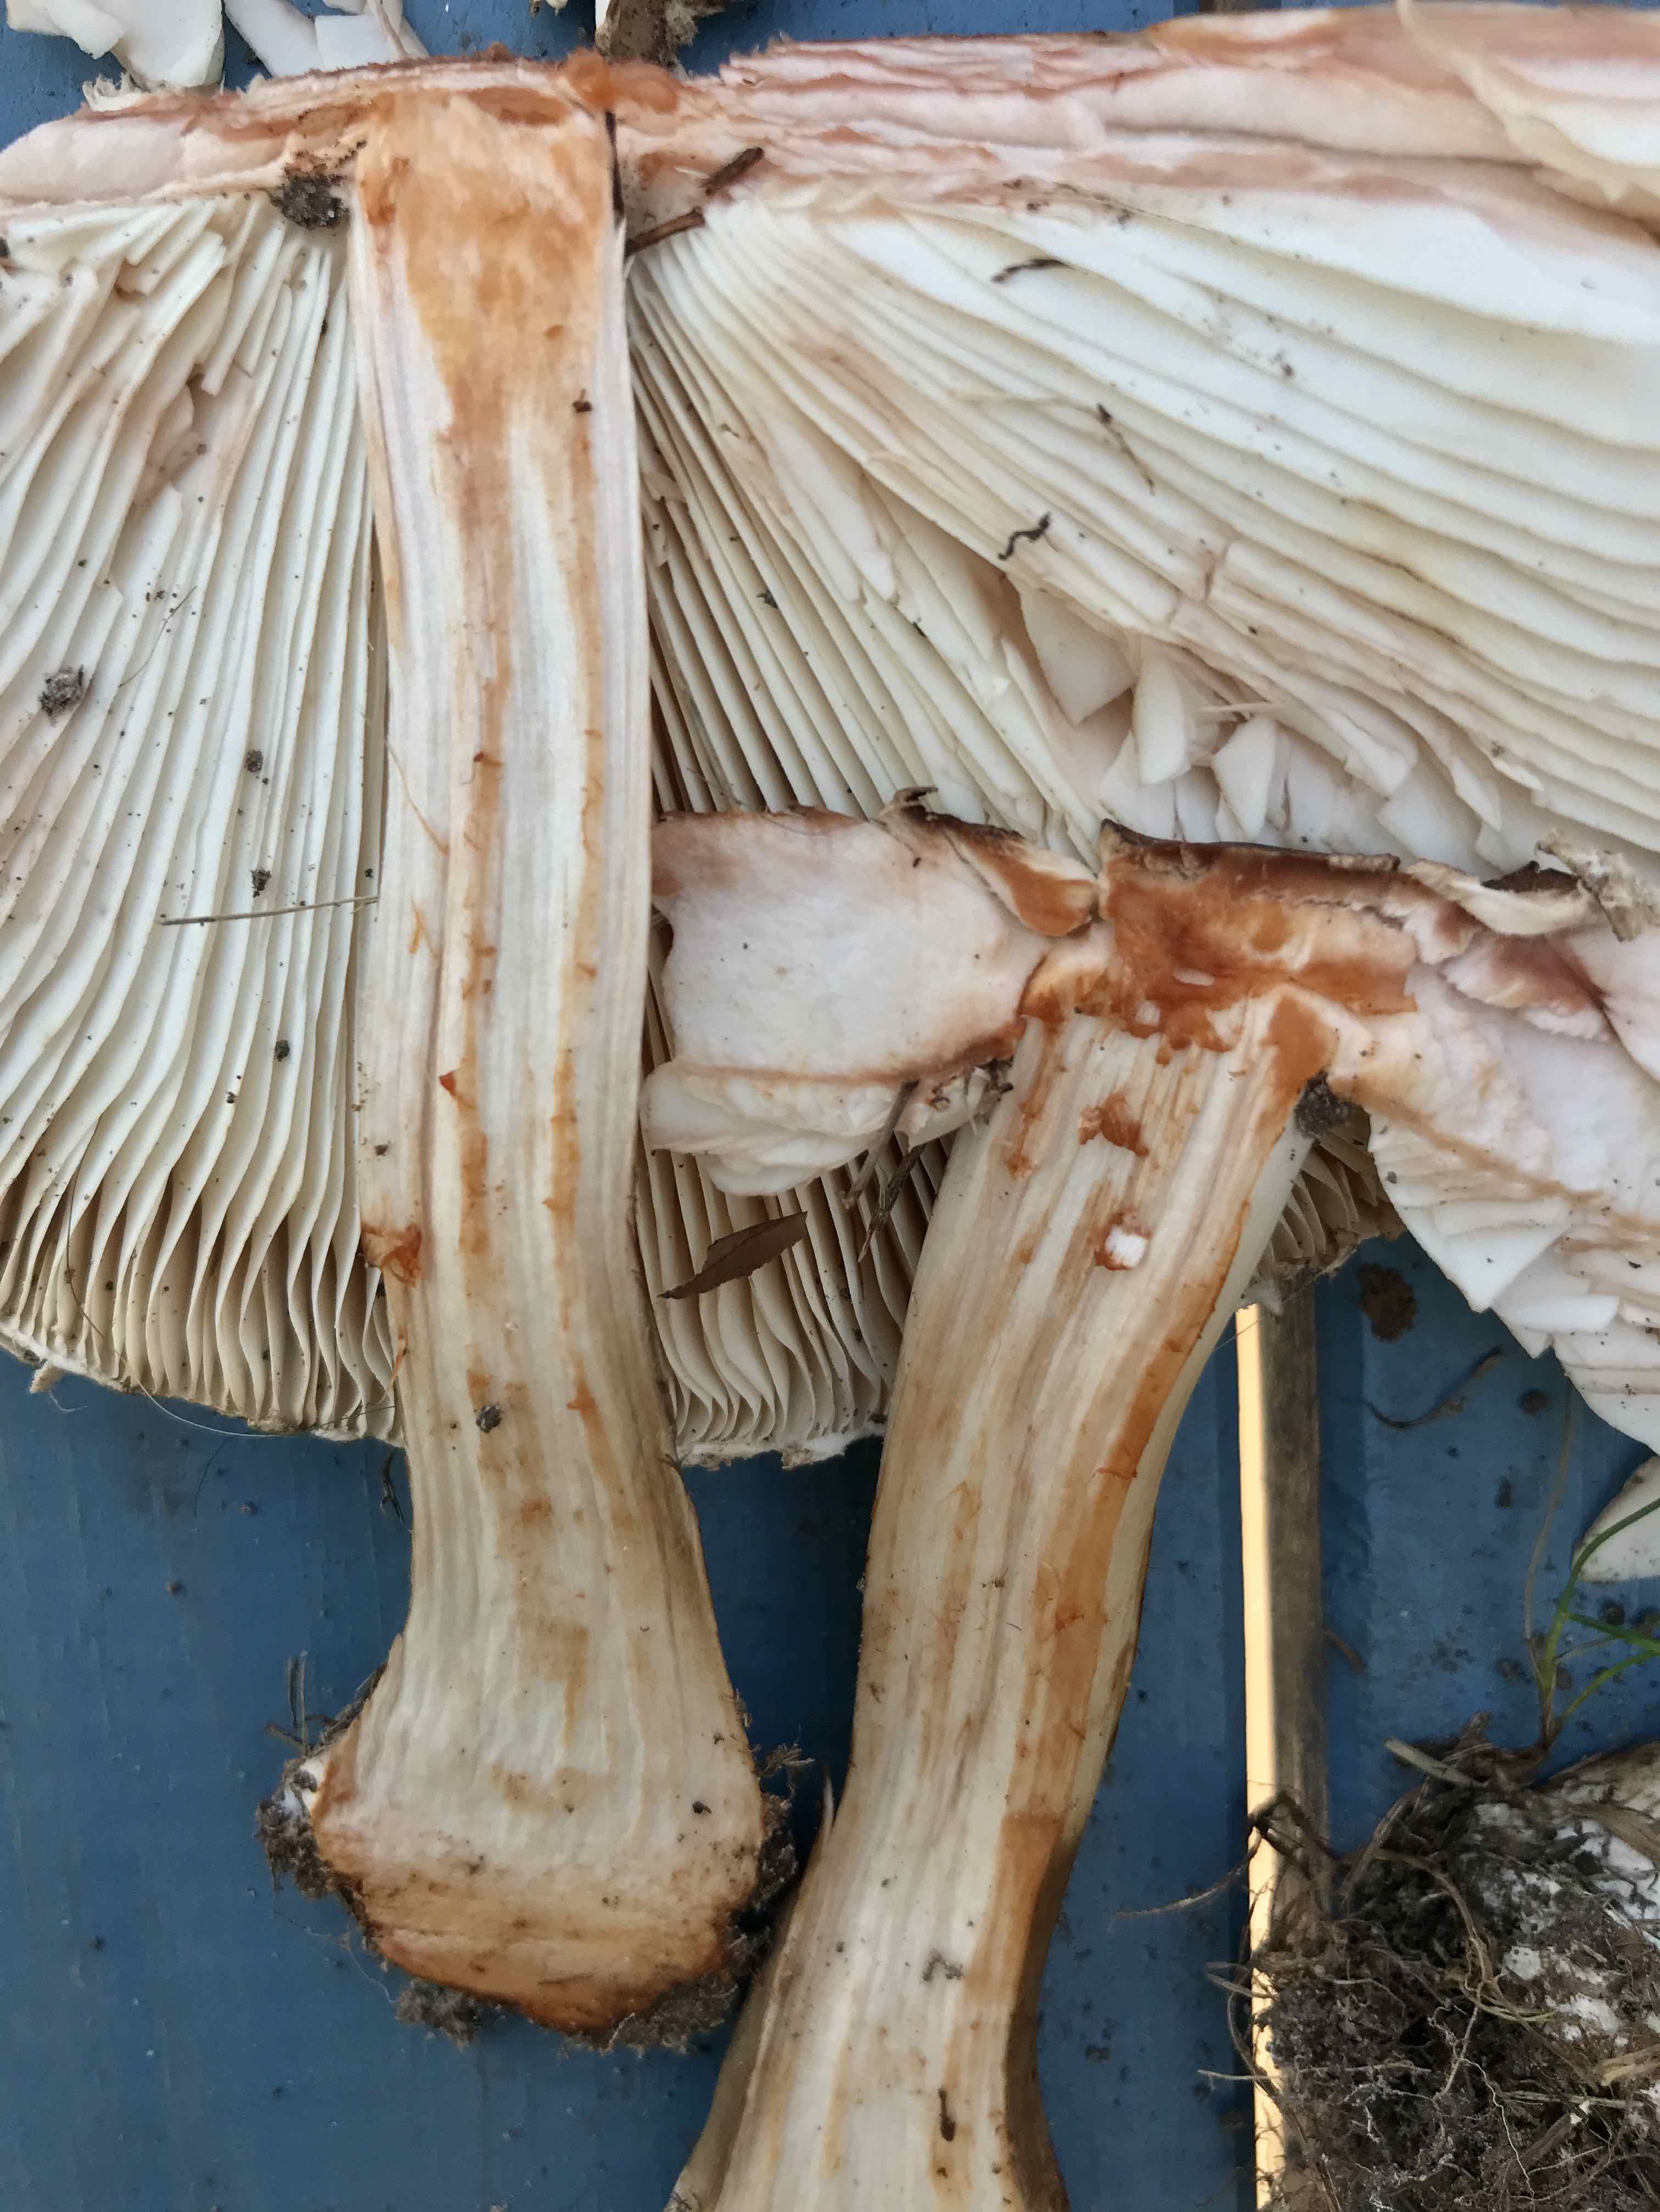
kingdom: Fungi
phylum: Basidiomycota
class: Agaricomycetes
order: Agaricales
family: Agaricaceae
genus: Chlorophyllum
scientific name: Chlorophyllum rhacodes
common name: ægte rabarberhat
